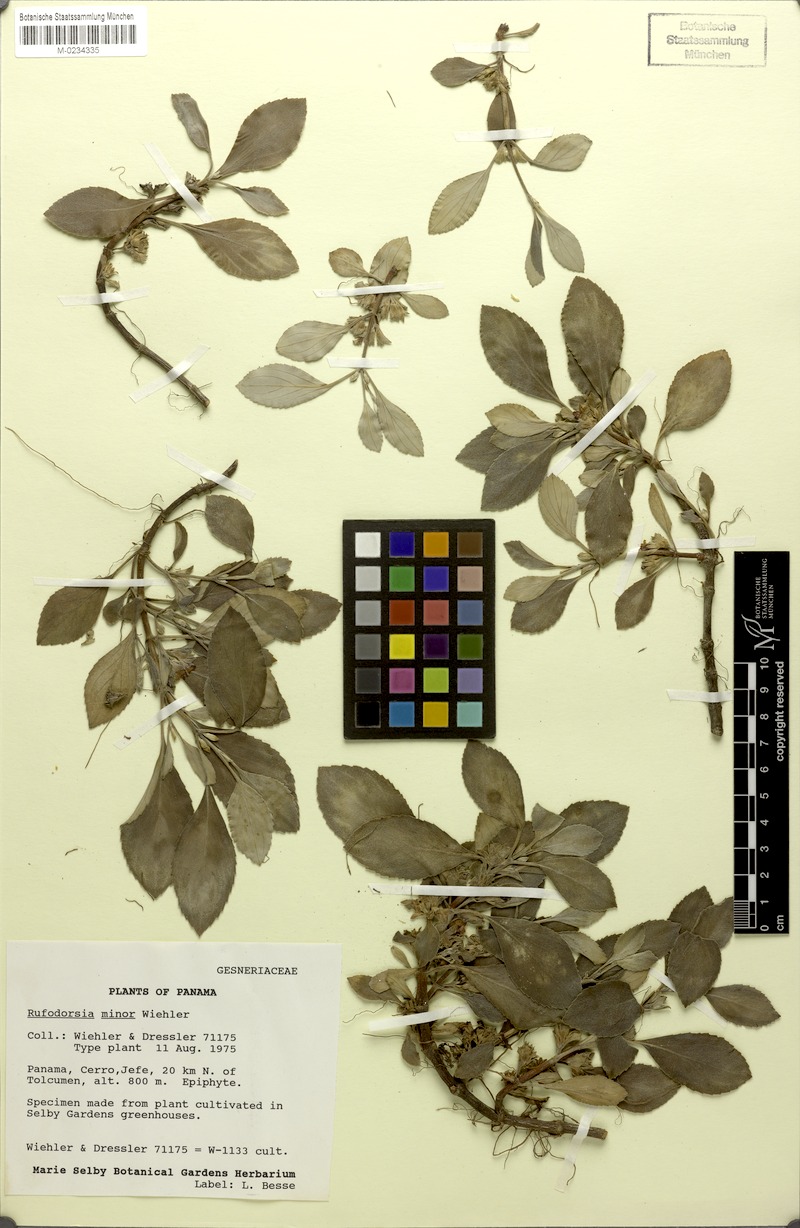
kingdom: Plantae
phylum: Tracheophyta
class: Magnoliopsida
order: Lamiales
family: Gesneriaceae
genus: Rufodorsia
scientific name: Rufodorsia minor
